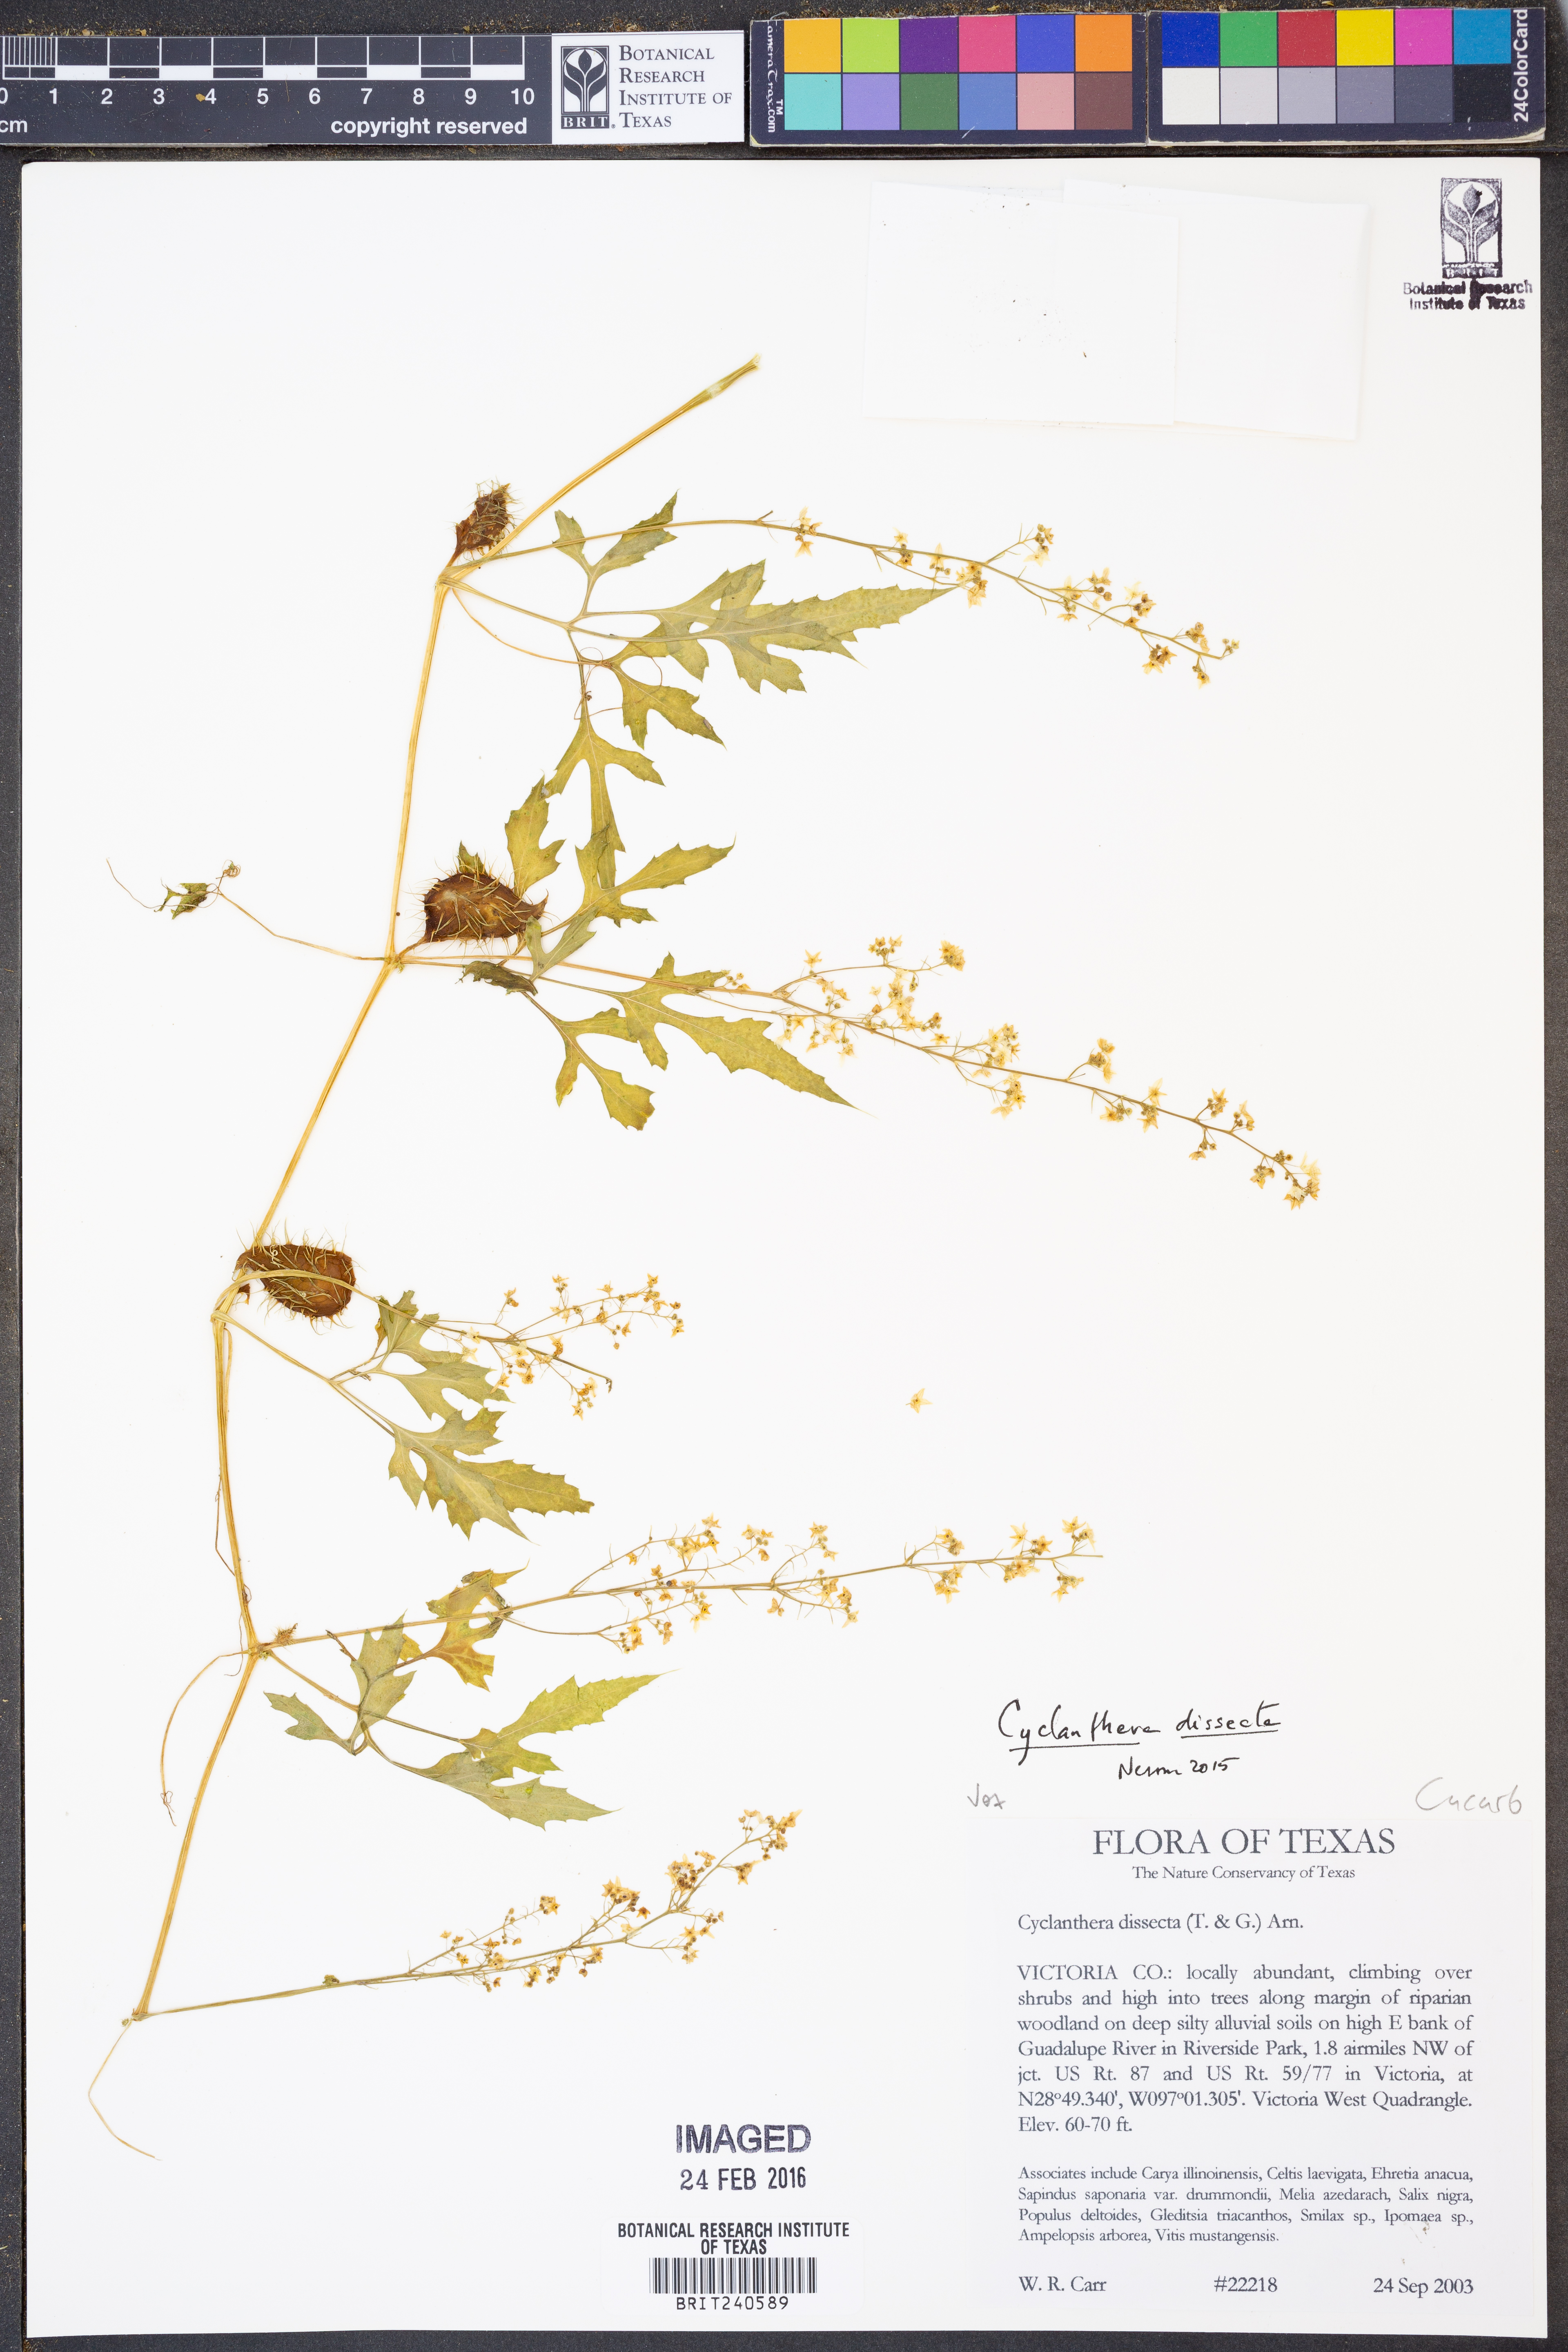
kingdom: Plantae
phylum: Tracheophyta
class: Magnoliopsida
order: Cucurbitales
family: Cucurbitaceae
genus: Cyclanthera
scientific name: Cyclanthera dissecta
